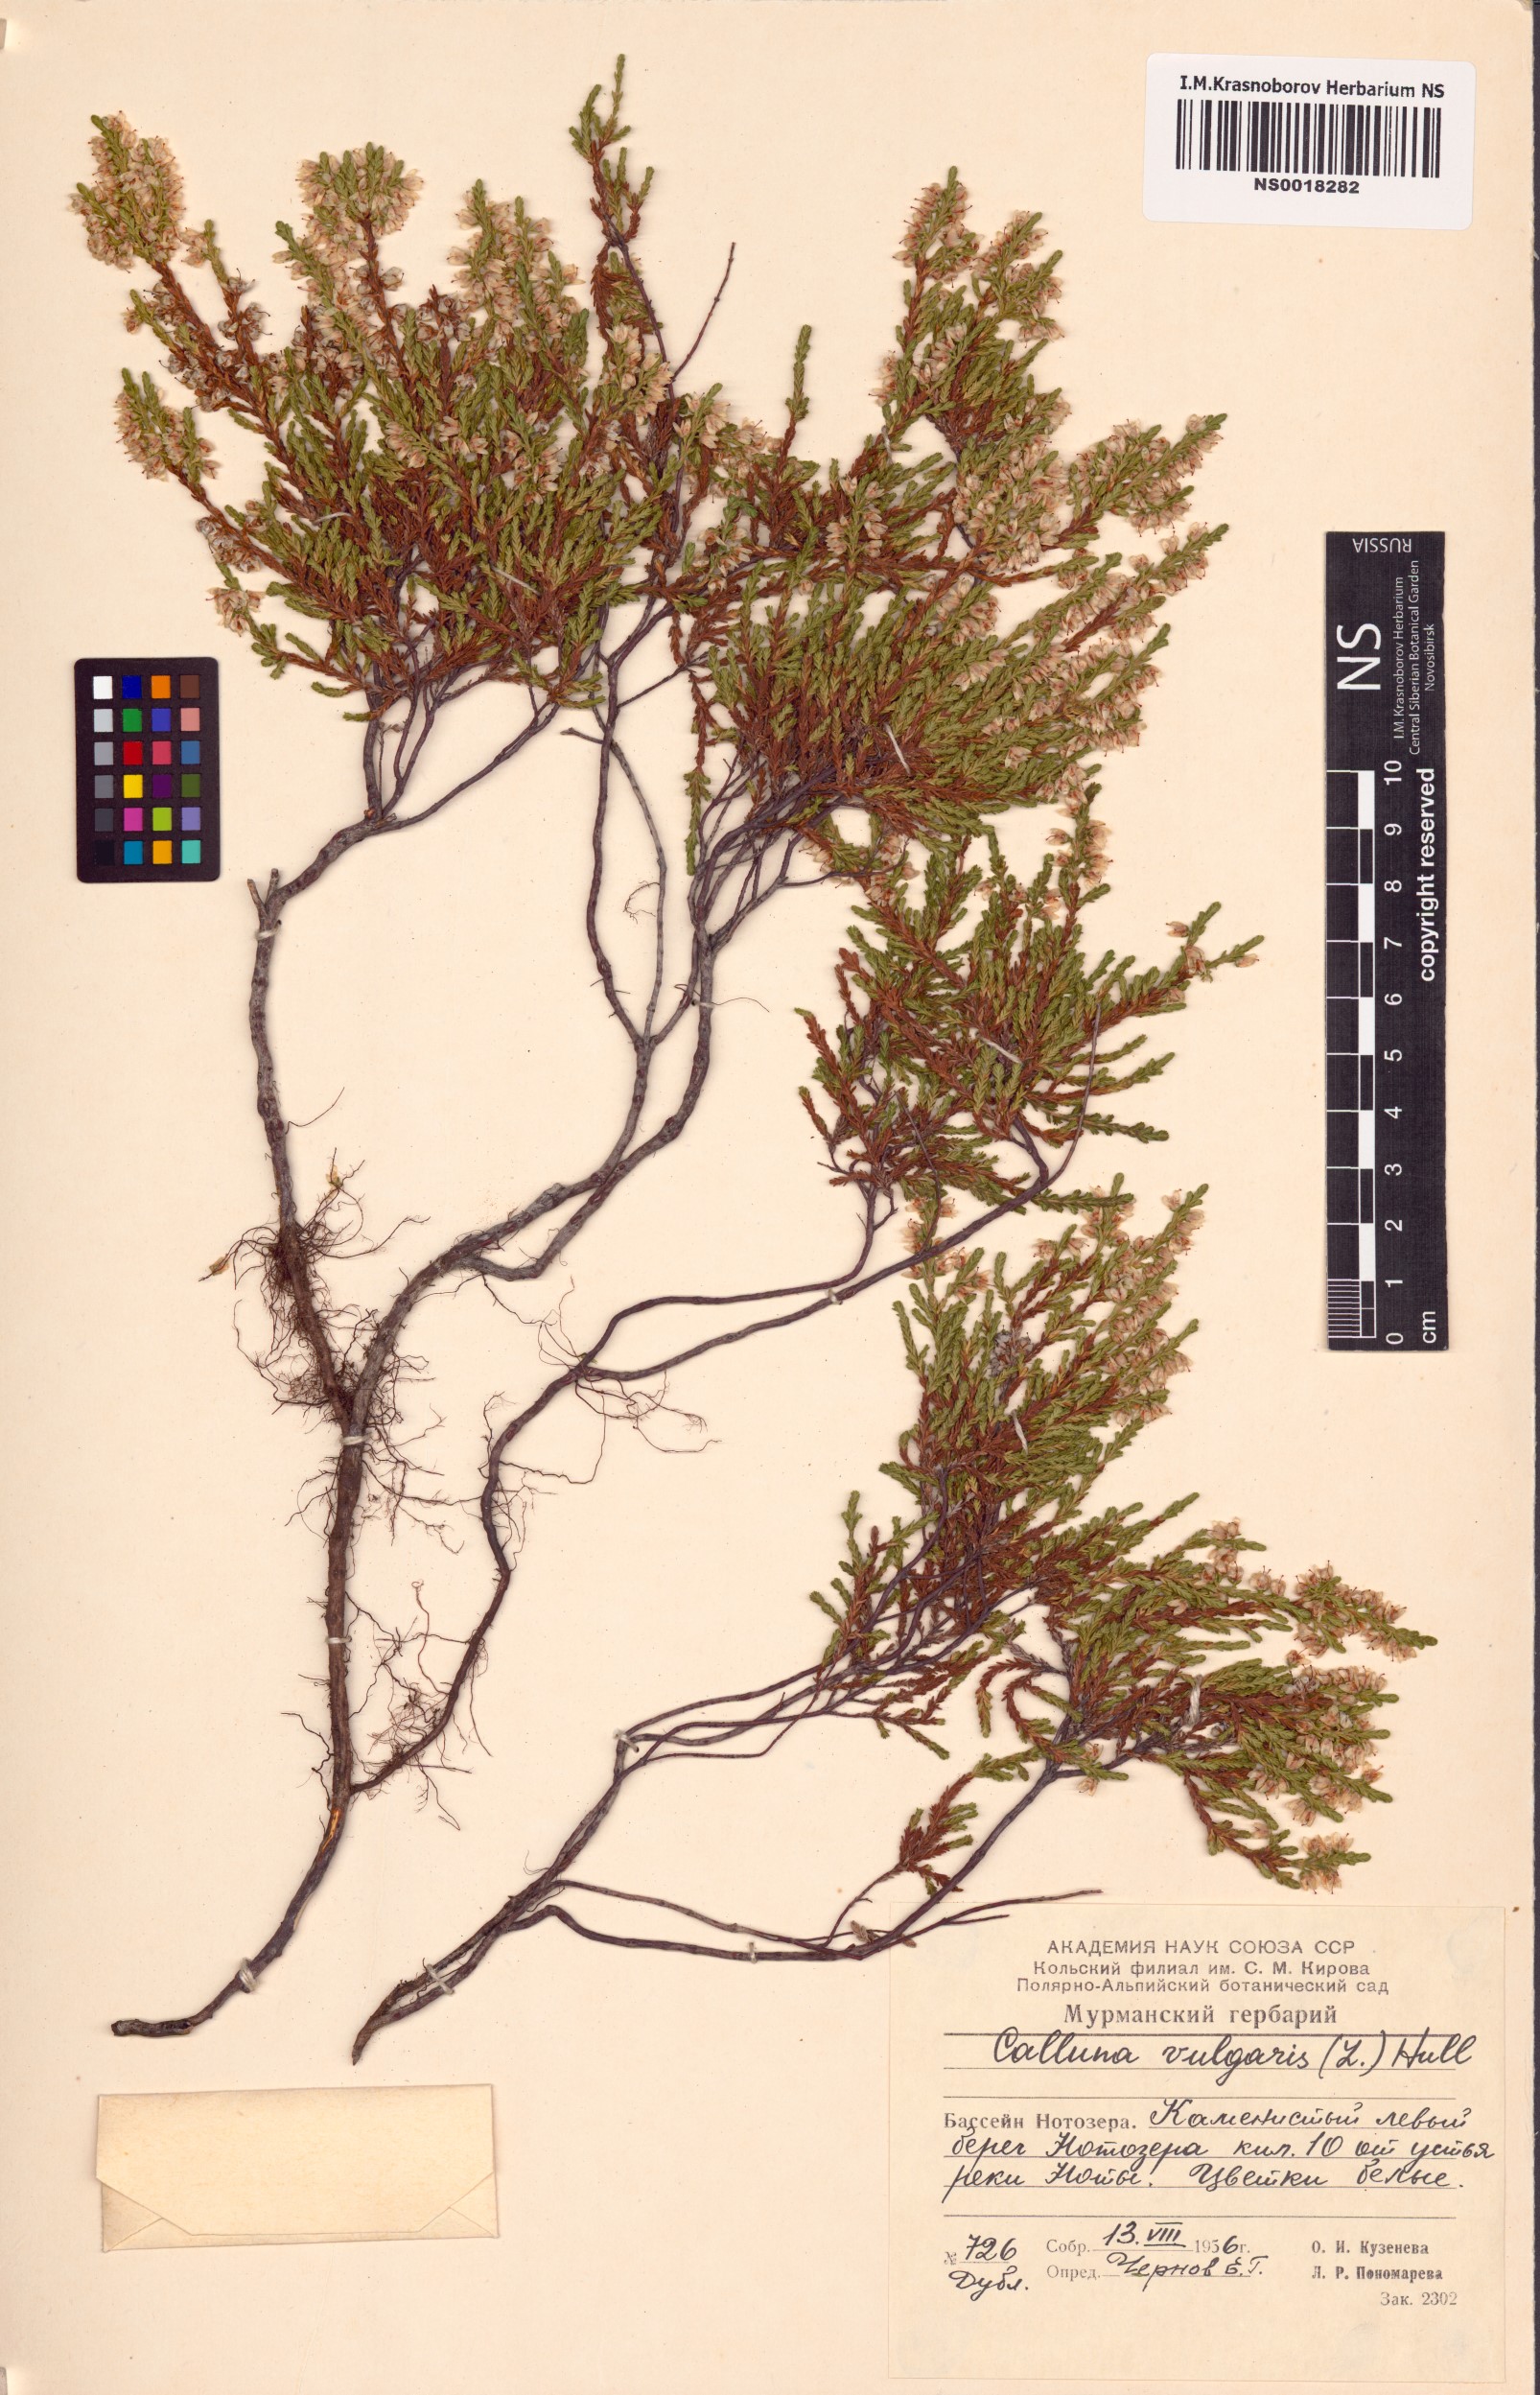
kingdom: Plantae
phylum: Tracheophyta
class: Magnoliopsida
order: Ericales
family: Ericaceae
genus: Calluna
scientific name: Calluna vulgaris
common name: Heather
